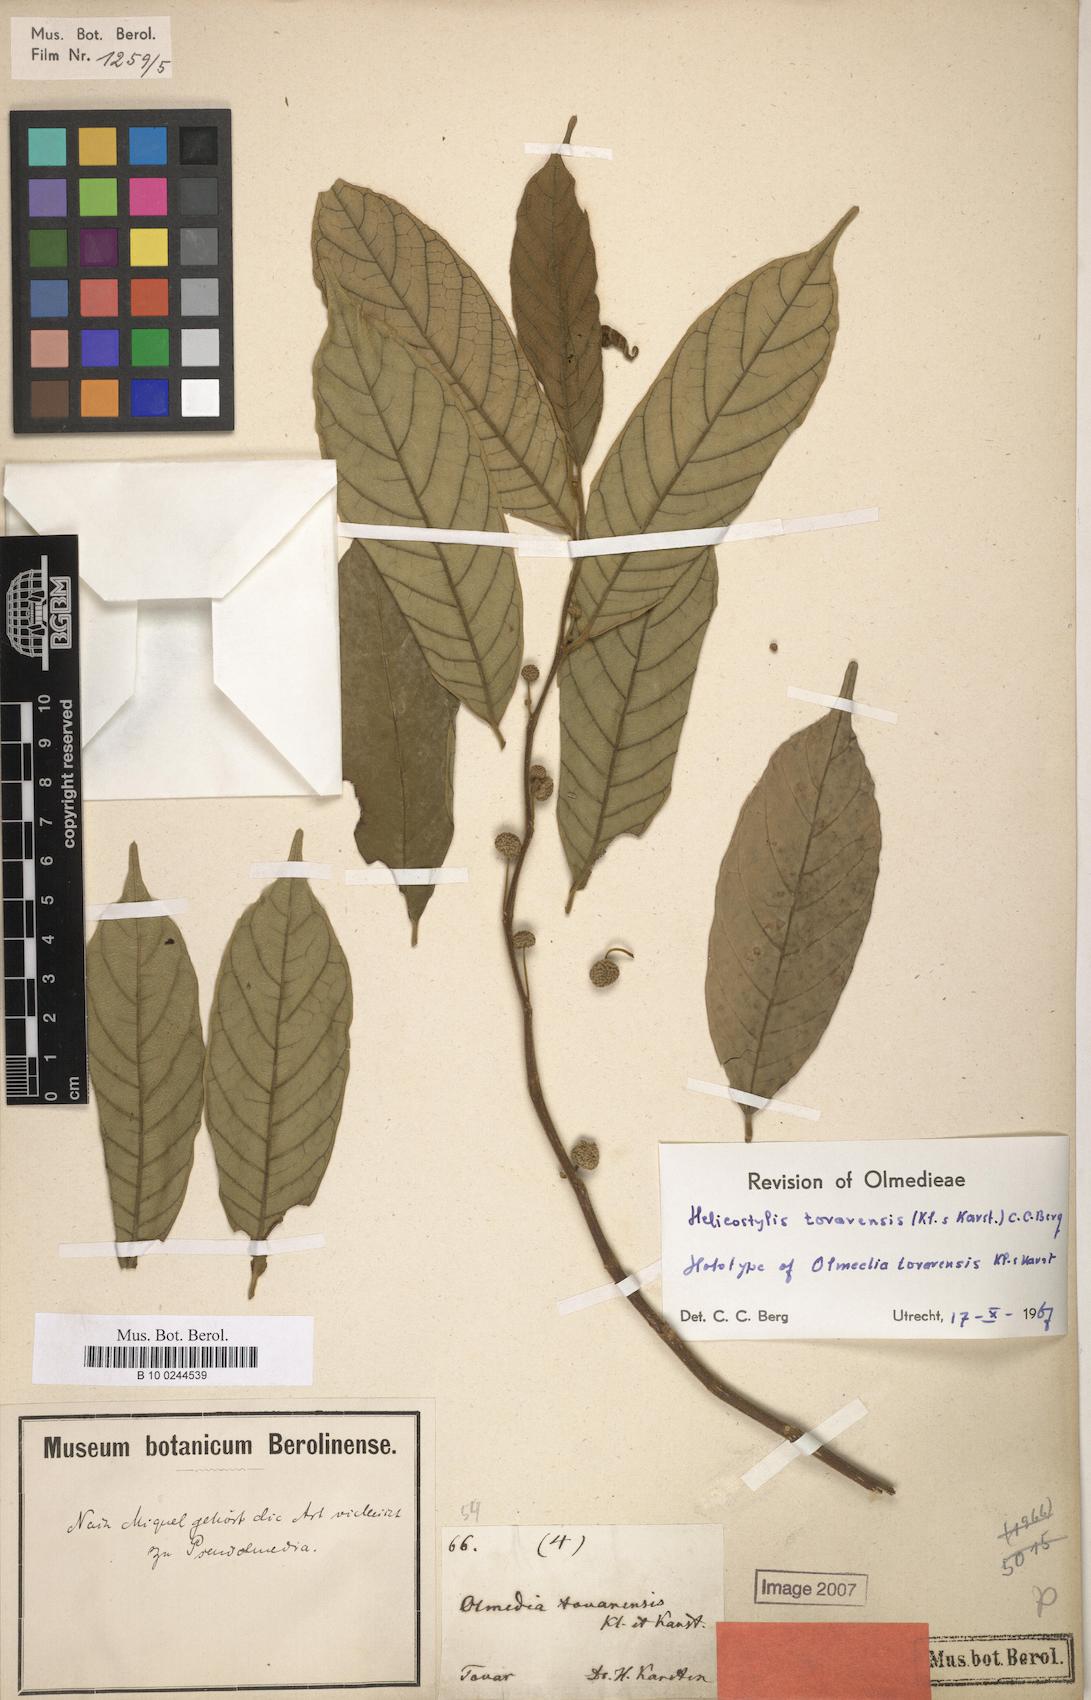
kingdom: Plantae
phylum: Tracheophyta
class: Magnoliopsida
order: Rosales
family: Moraceae
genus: Helicostylis
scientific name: Helicostylis tovarensis
